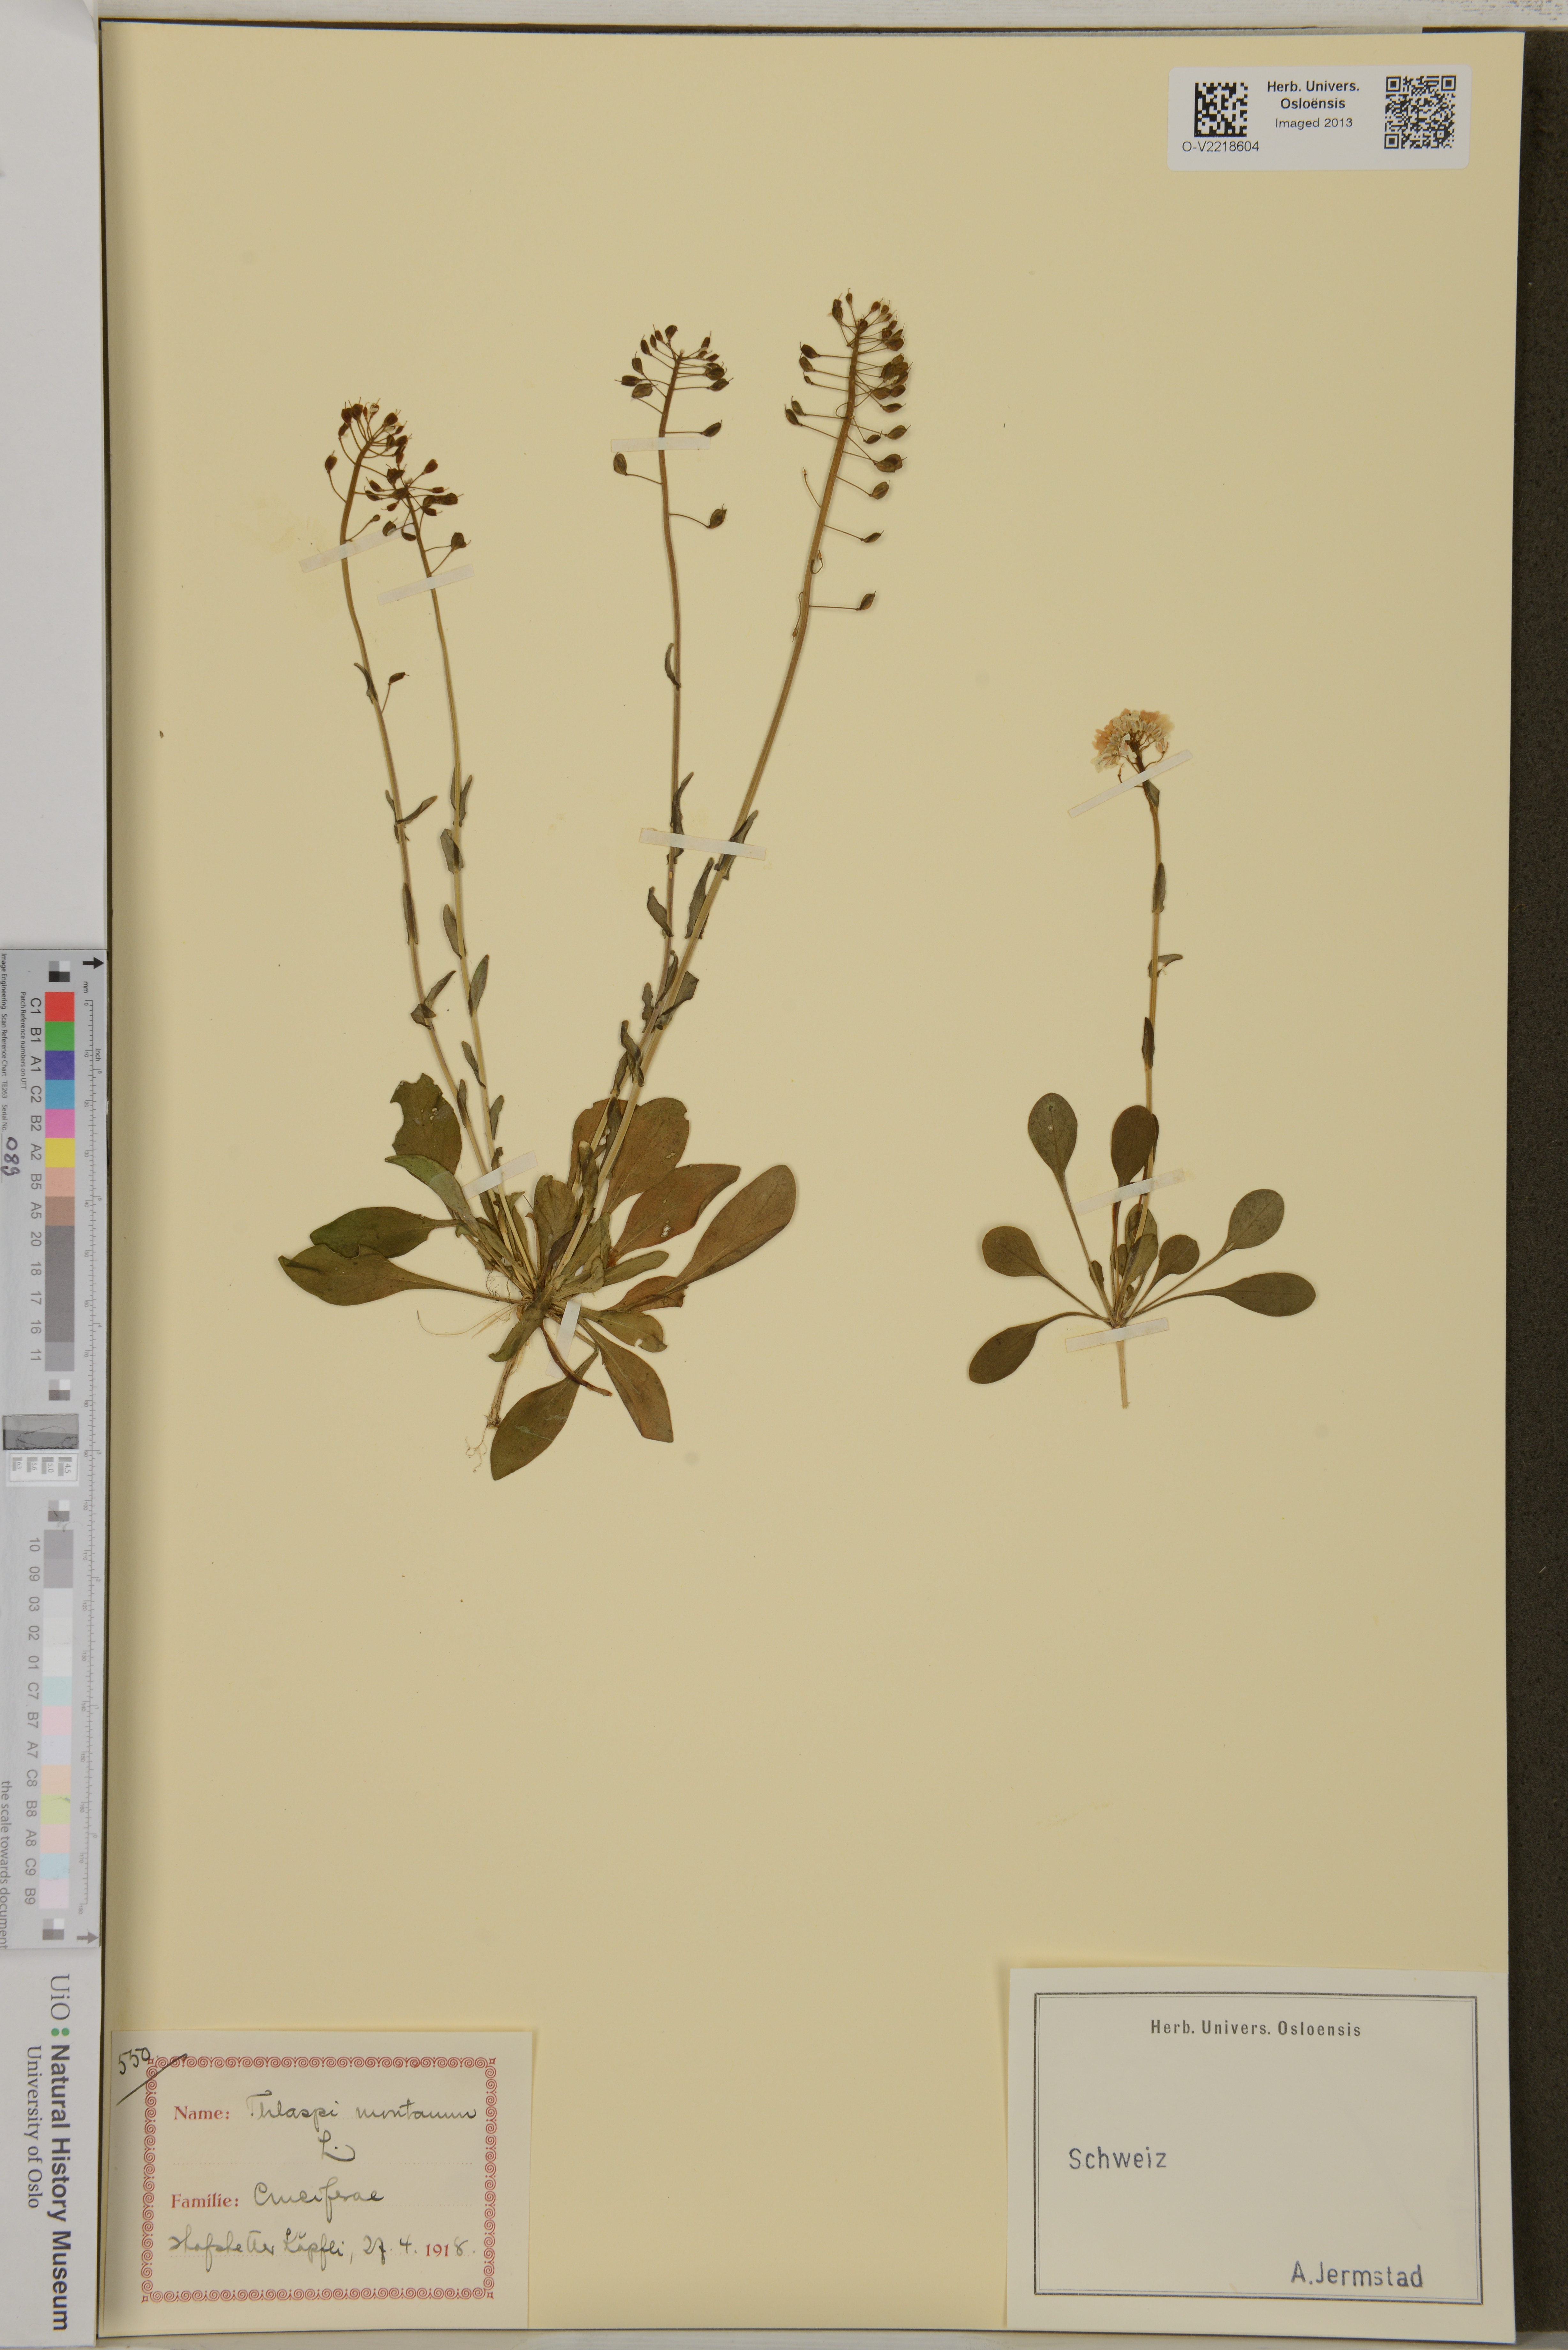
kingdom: Plantae
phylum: Tracheophyta
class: Magnoliopsida
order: Brassicales
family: Brassicaceae
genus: Noccaea
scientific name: Noccaea montana
